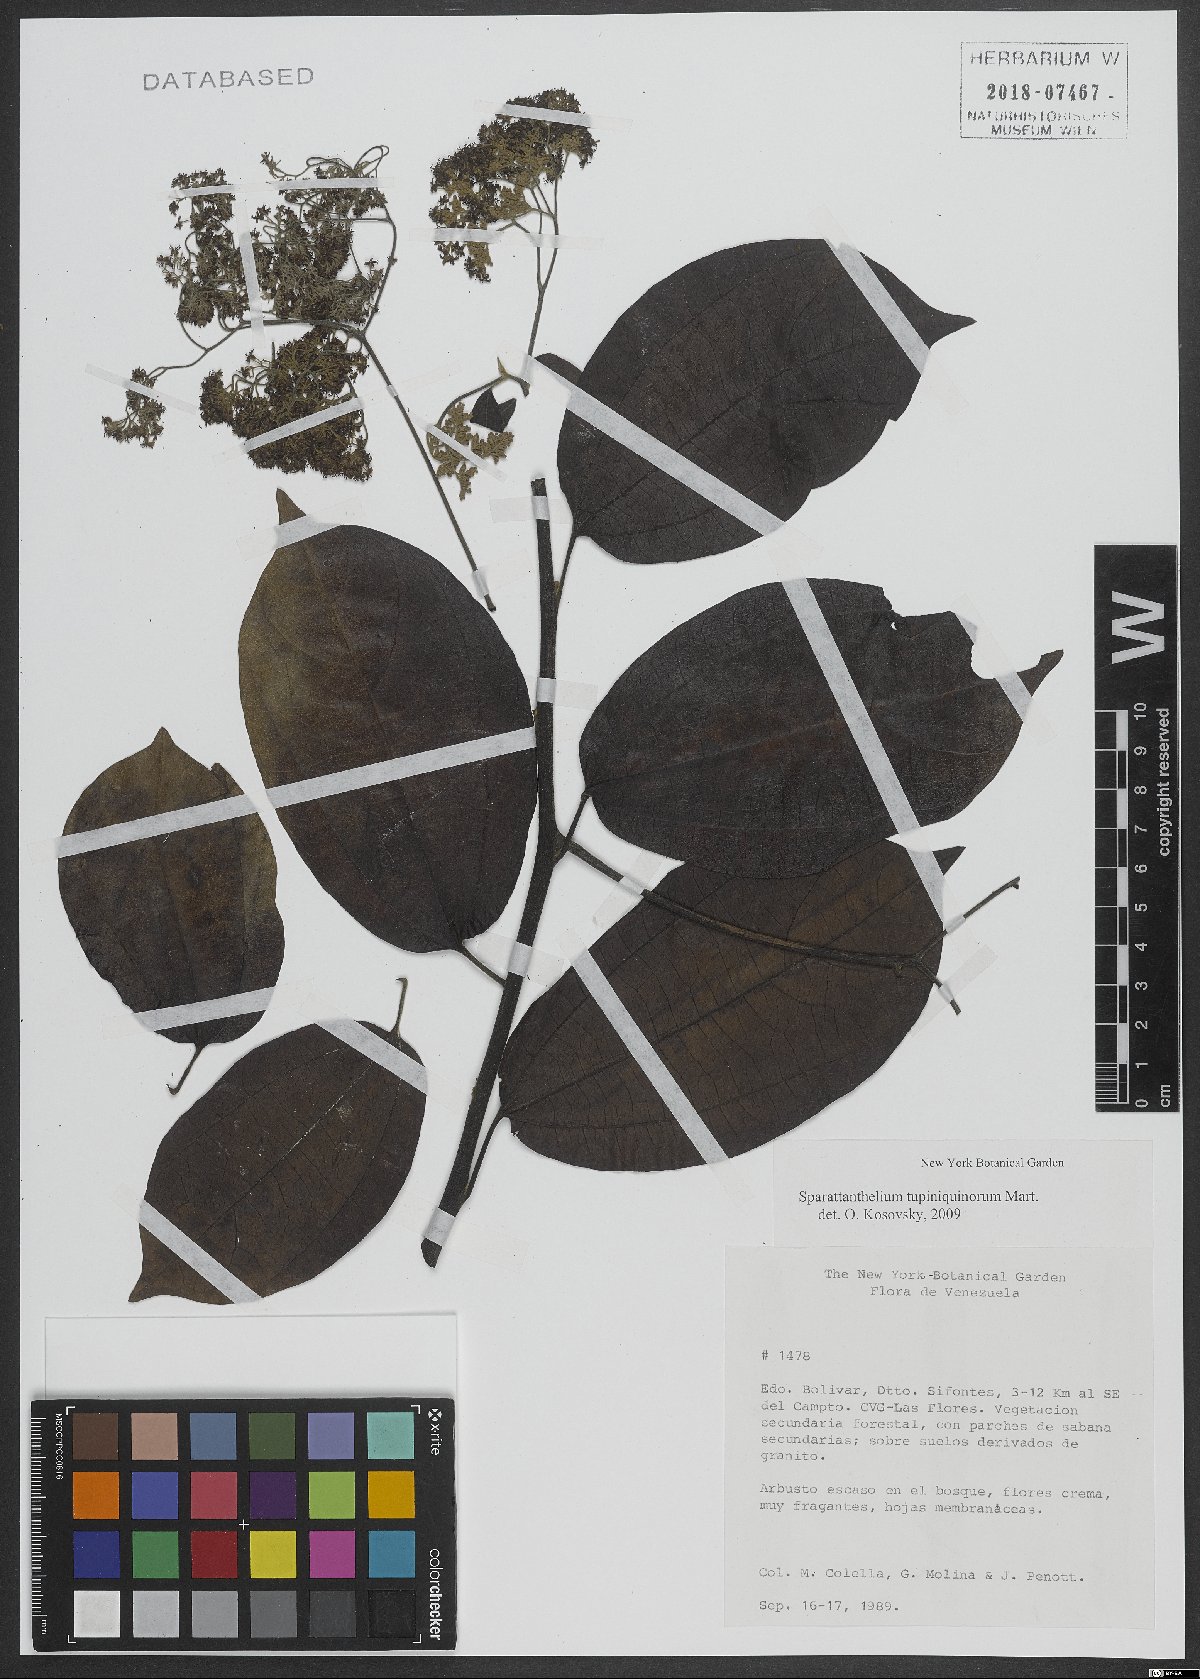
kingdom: Plantae
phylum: Tracheophyta
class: Magnoliopsida
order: Laurales
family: Hernandiaceae
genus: Sparattanthelium
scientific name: Sparattanthelium tupiniquinorum
